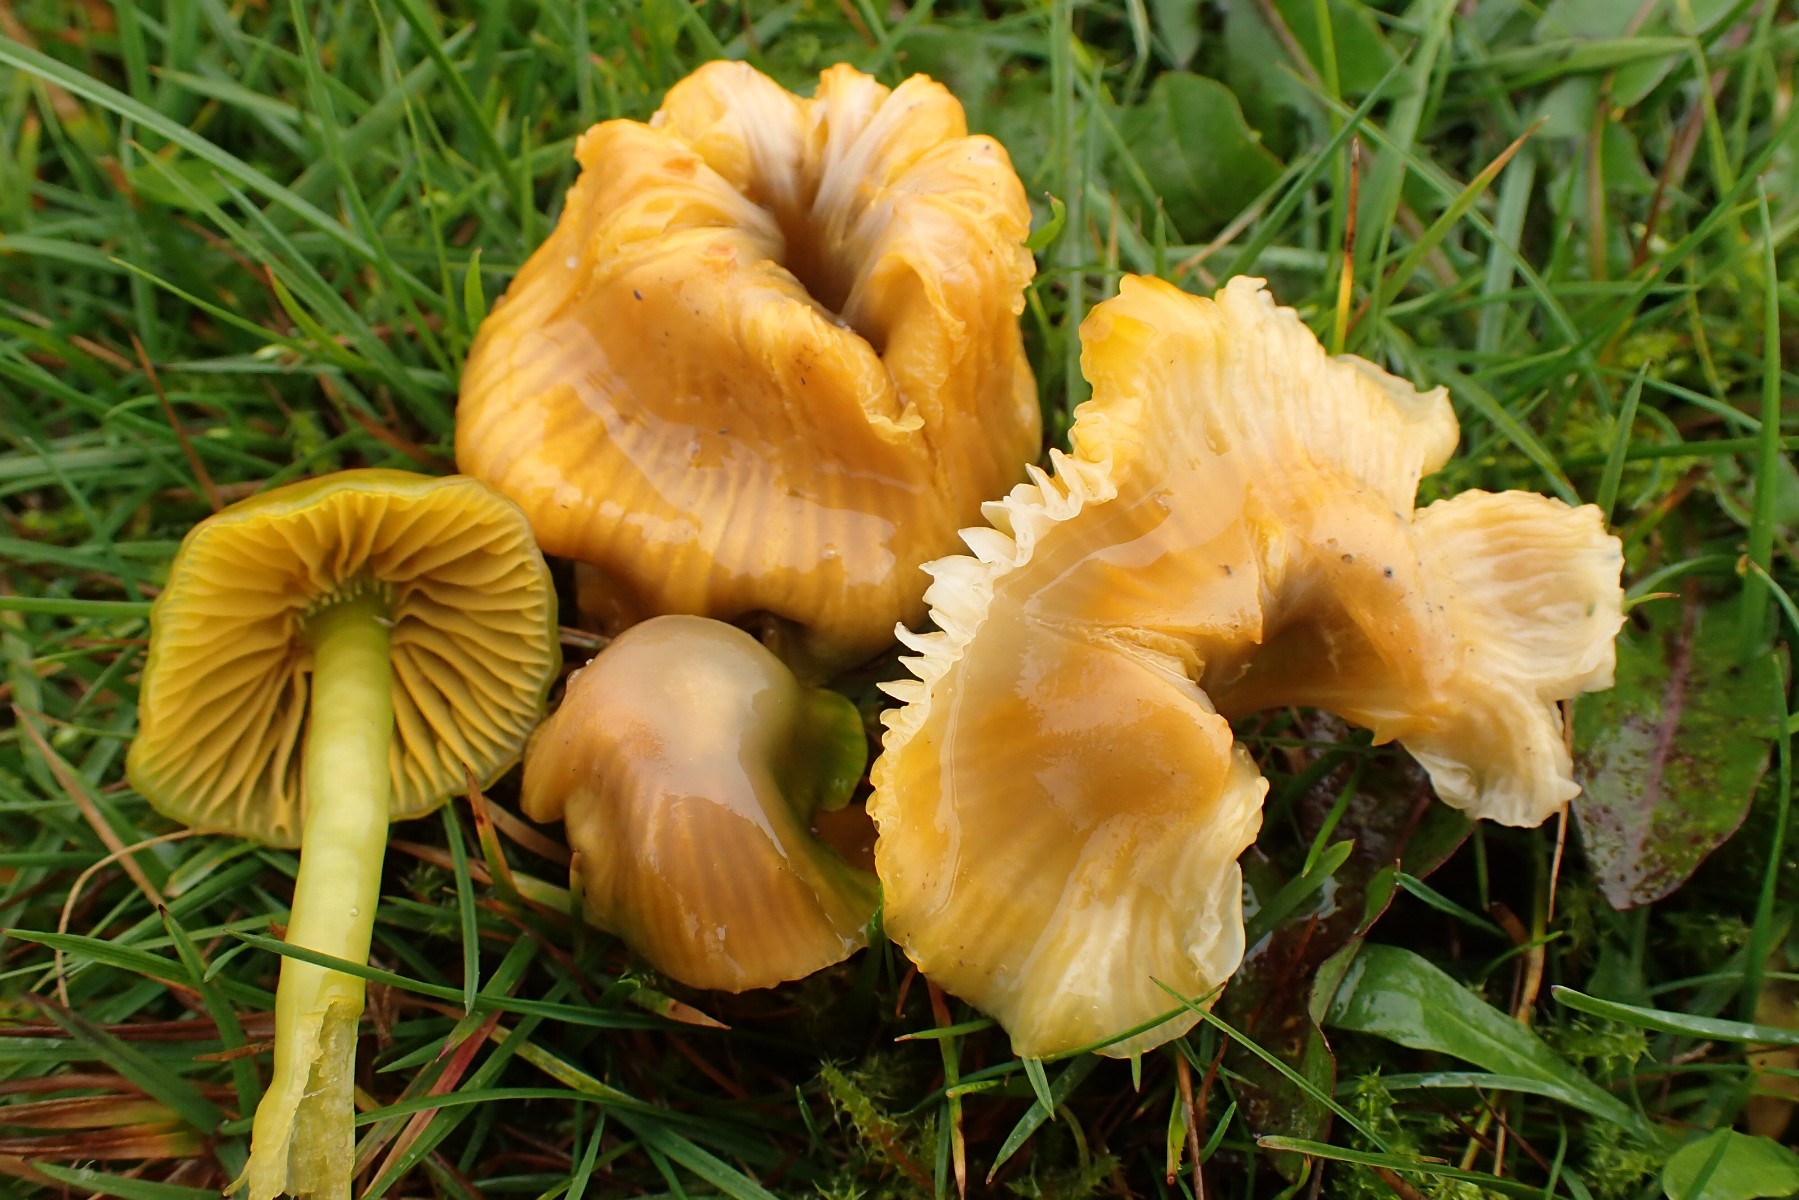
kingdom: Fungi
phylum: Basidiomycota
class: Agaricomycetes
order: Agaricales
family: Hygrophoraceae
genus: Gliophorus
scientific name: Gliophorus psittacinus
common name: papegøje-vokshat
